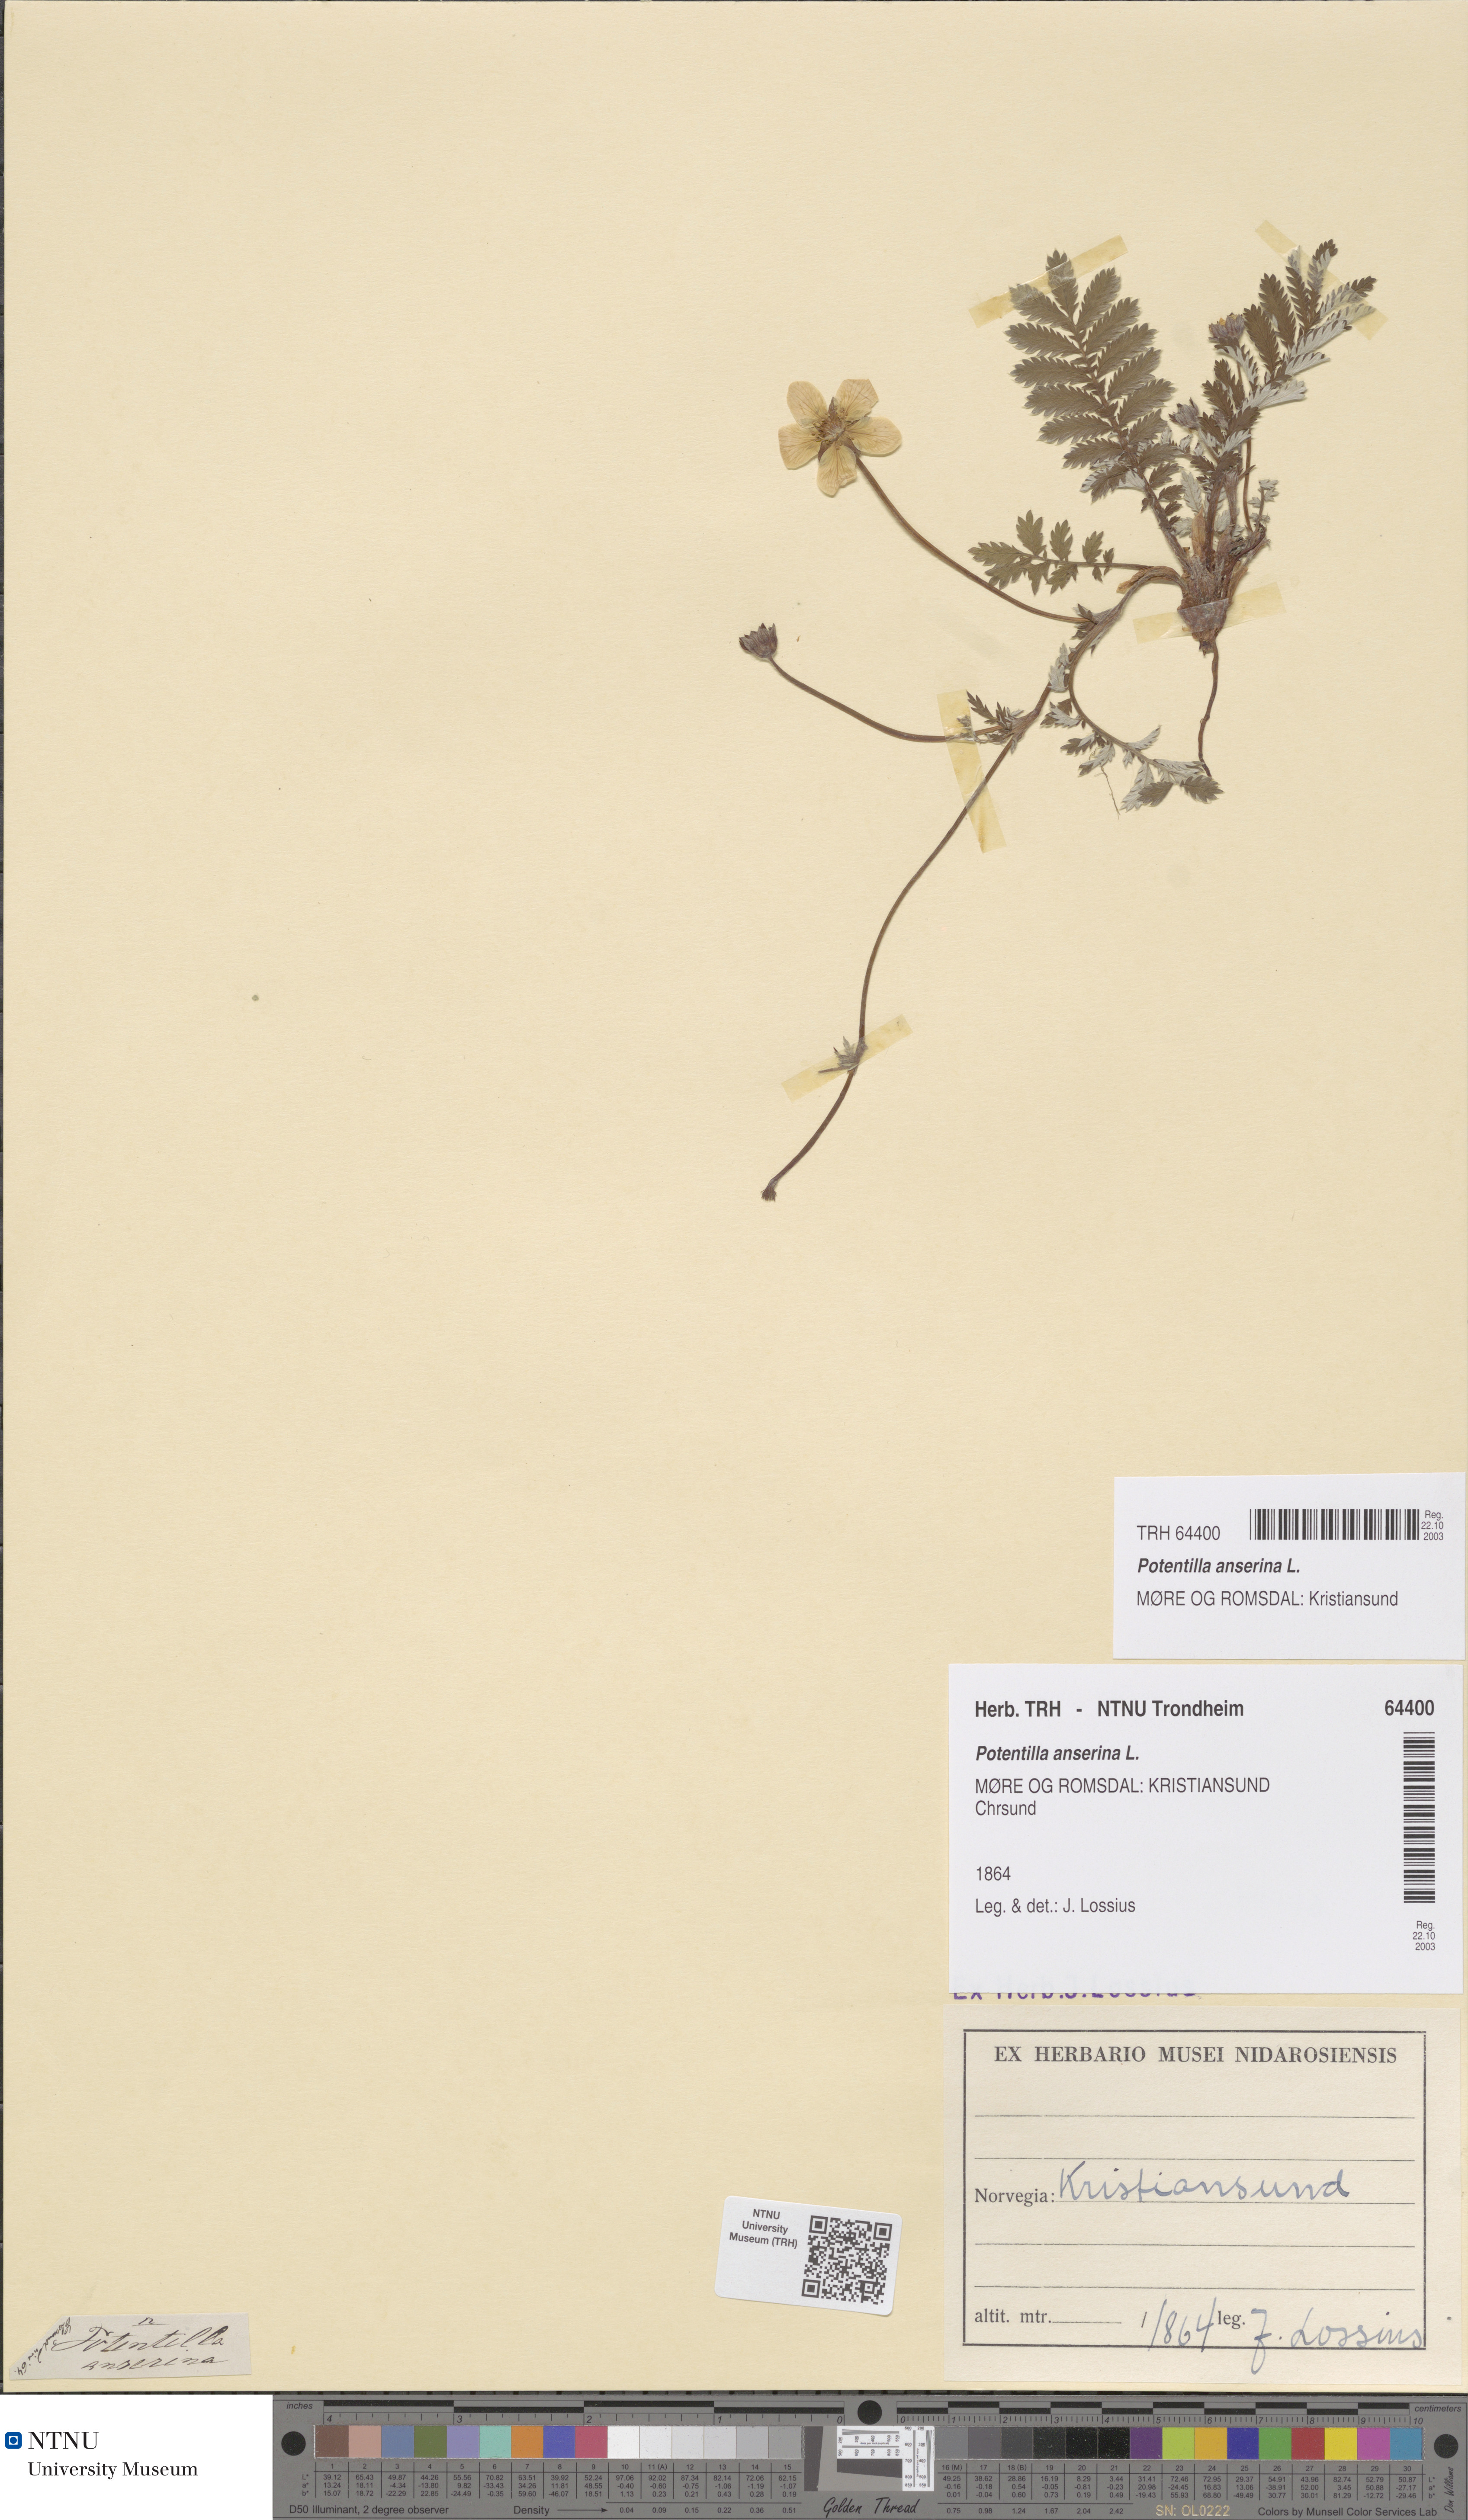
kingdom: Plantae
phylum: Tracheophyta
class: Magnoliopsida
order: Rosales
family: Rosaceae
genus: Argentina
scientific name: Argentina anserina
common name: Common silverweed
